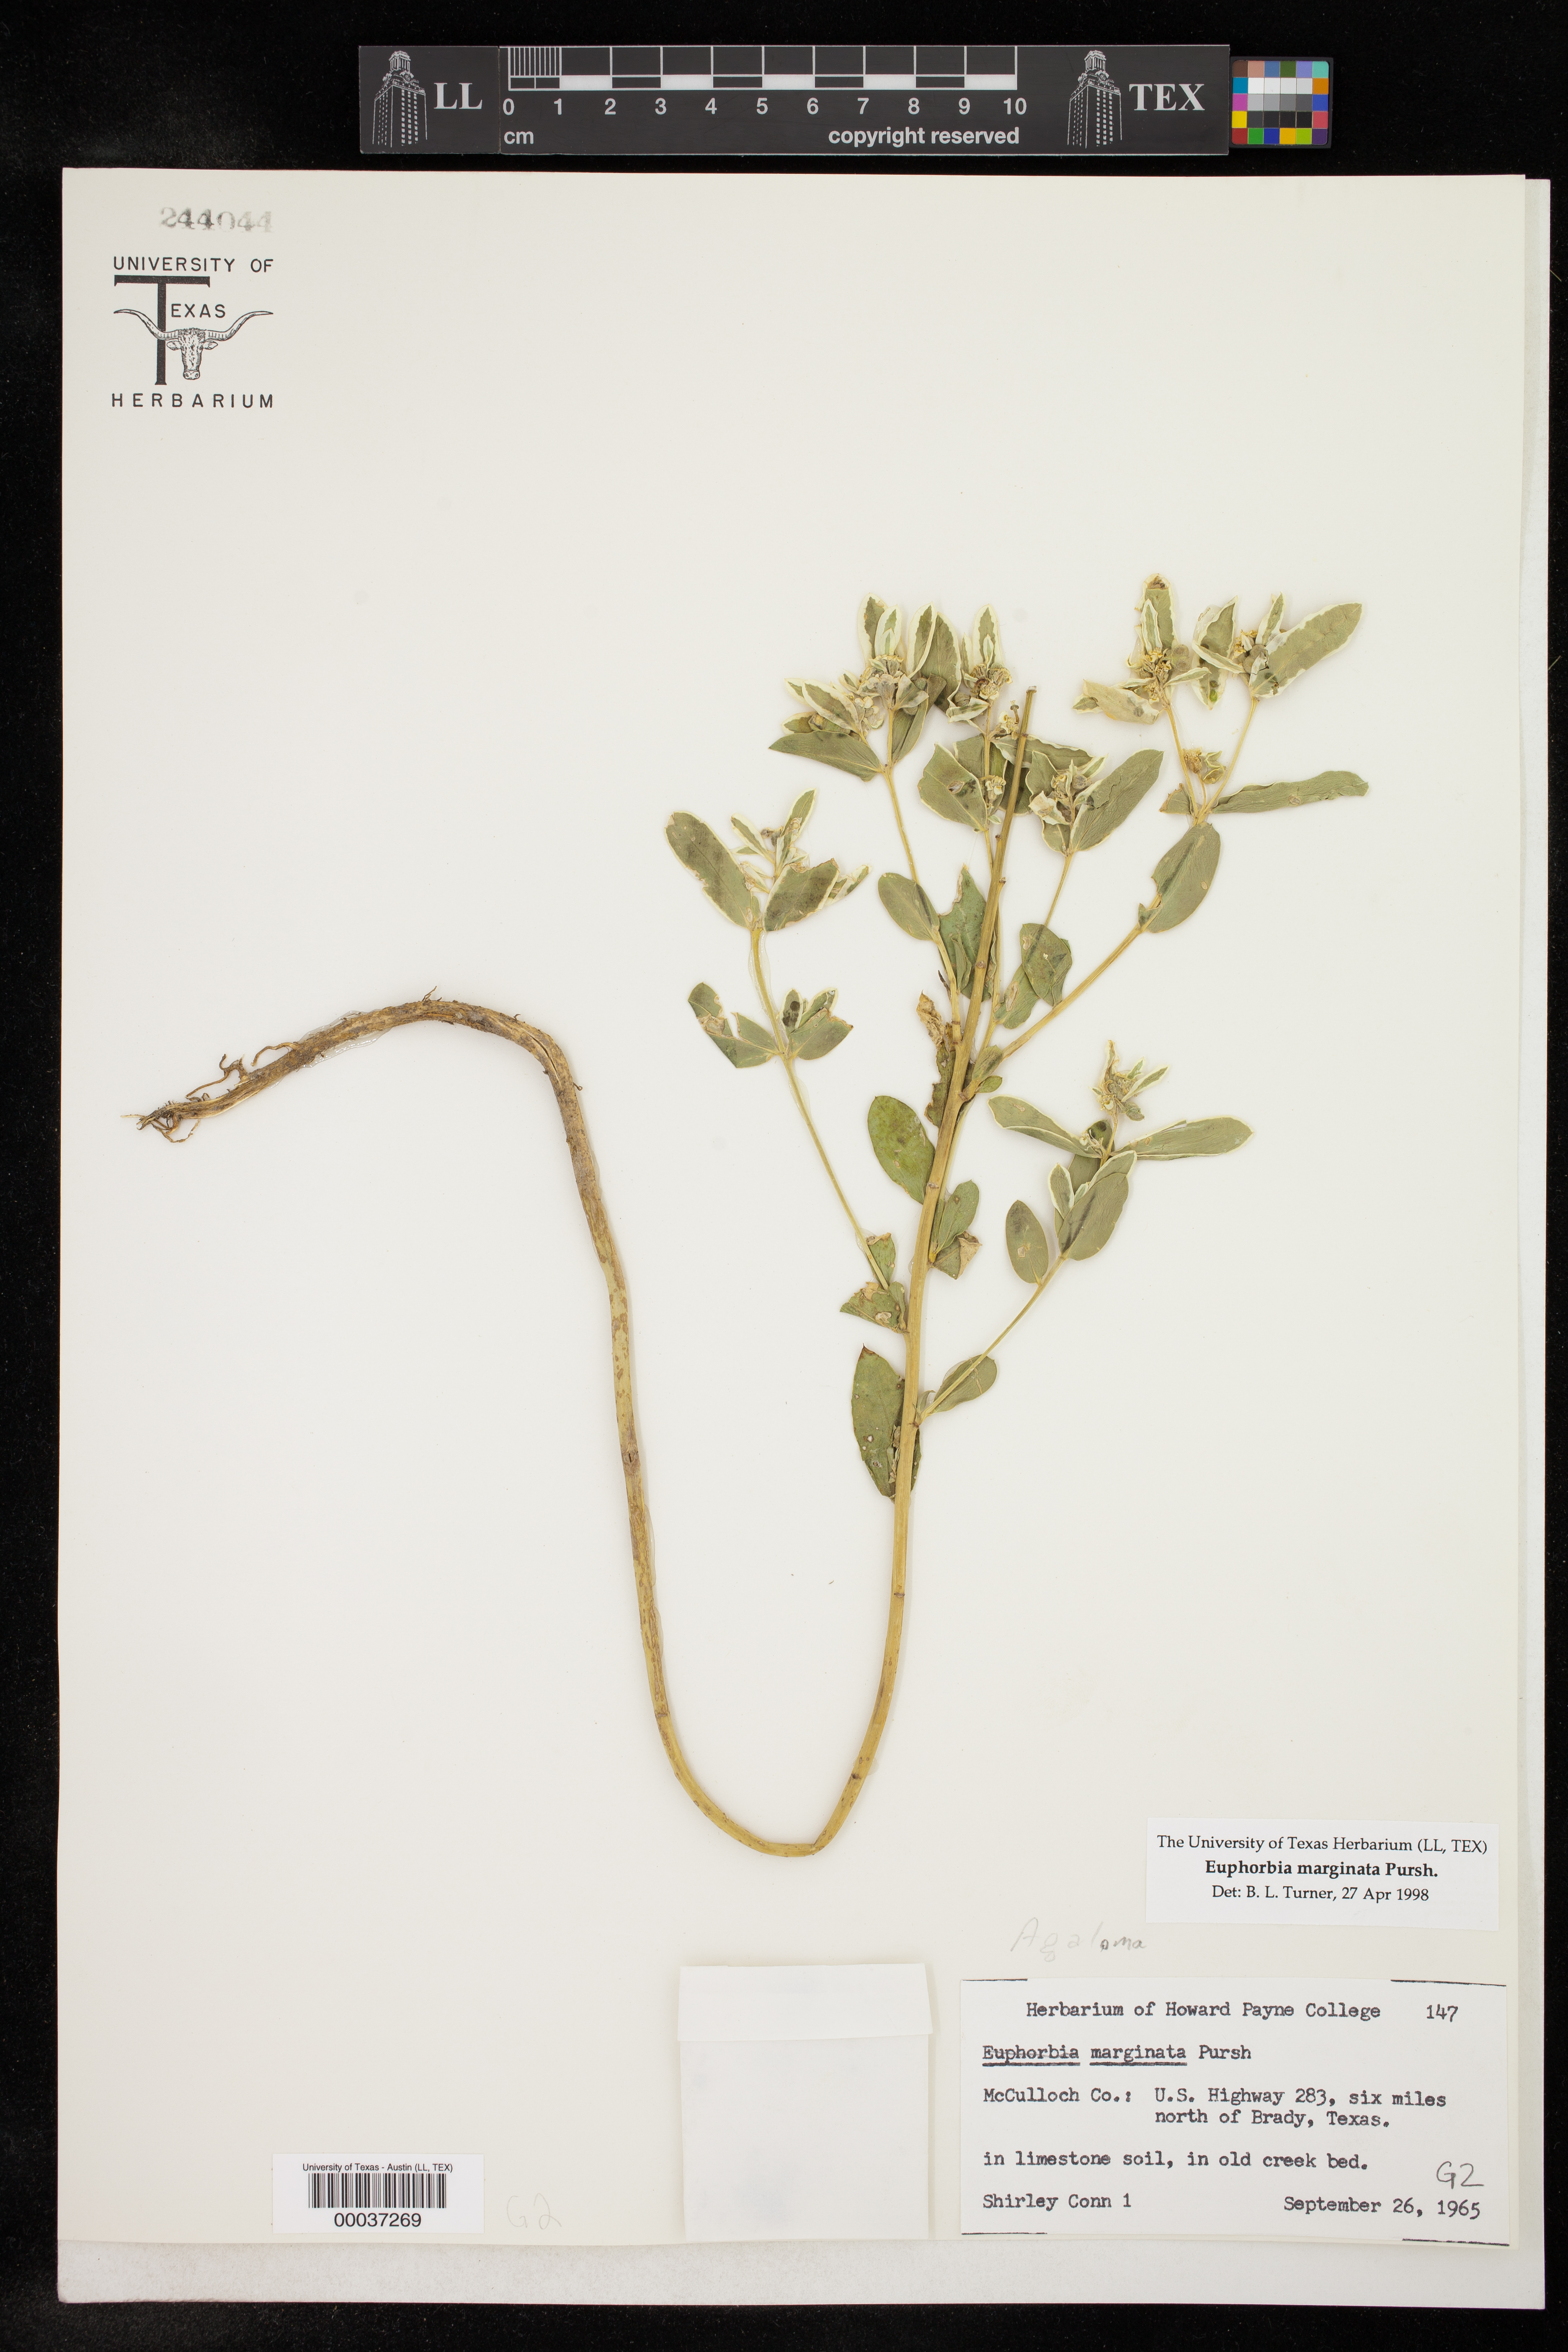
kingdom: Plantae
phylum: Tracheophyta
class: Magnoliopsida
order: Malpighiales
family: Euphorbiaceae
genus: Euphorbia
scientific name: Euphorbia marginata
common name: Ghostweed
